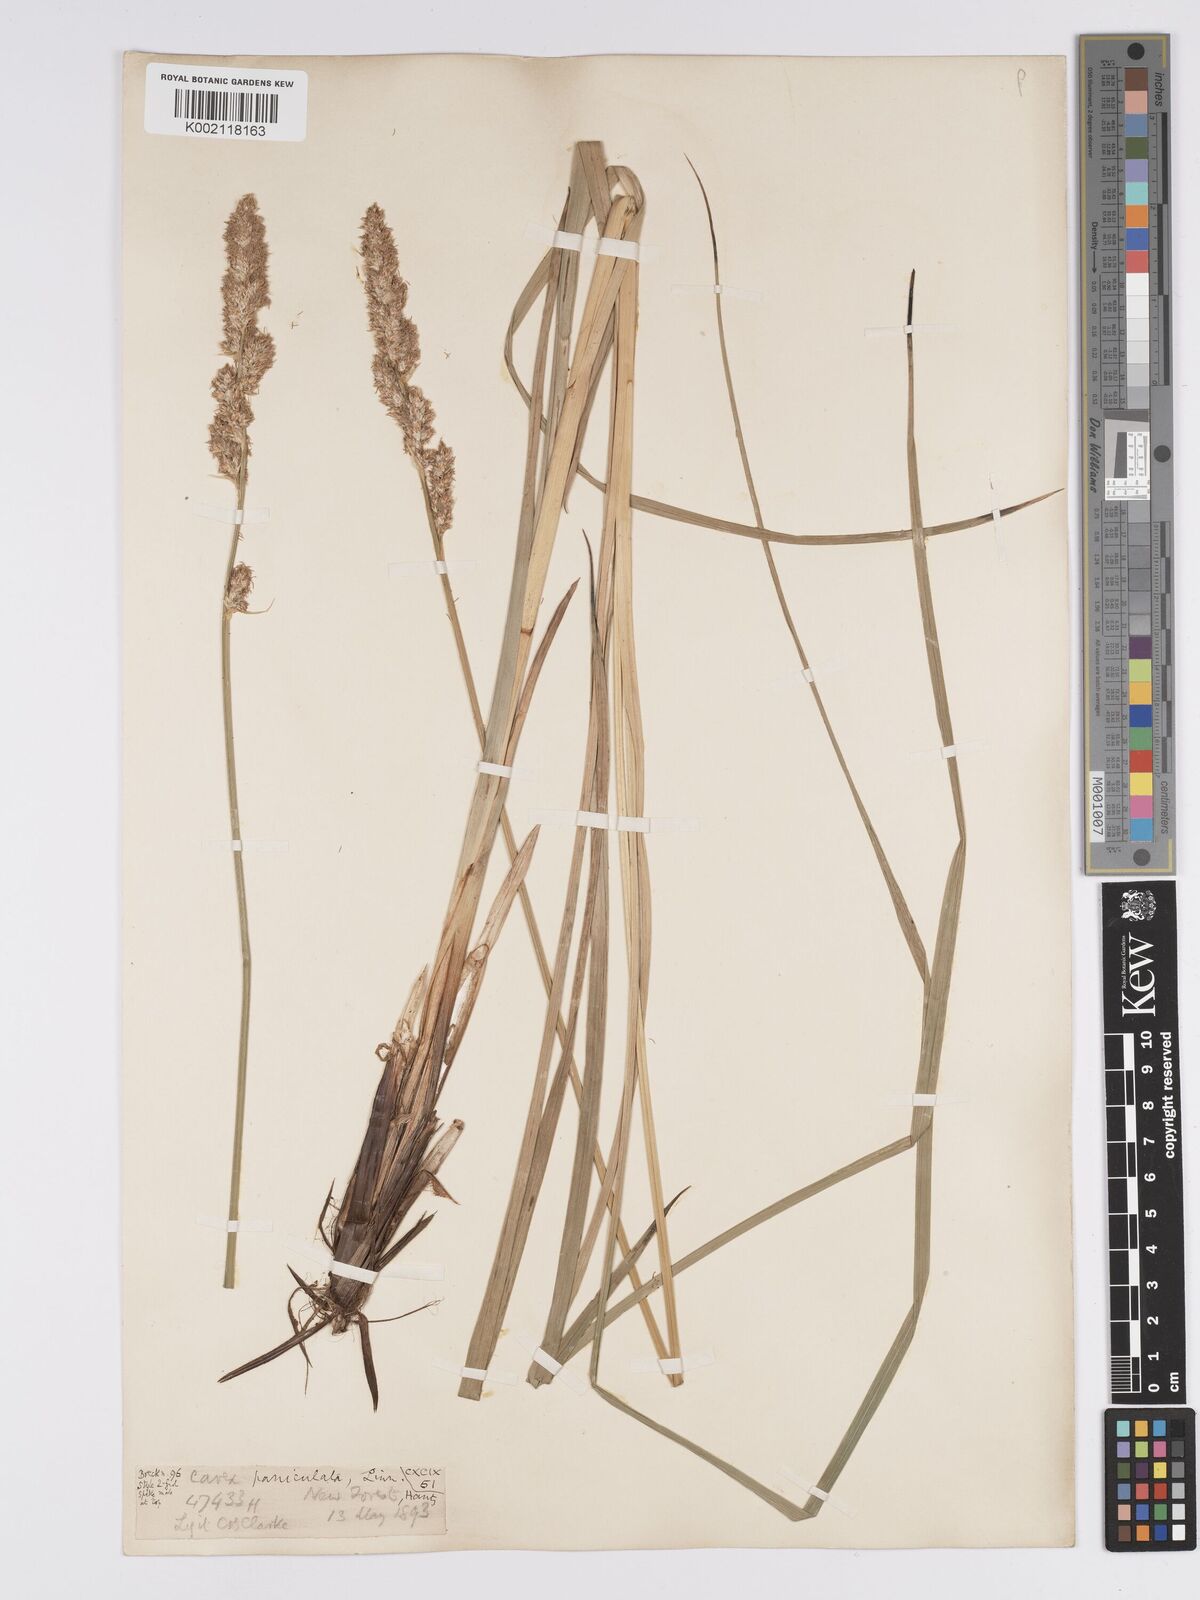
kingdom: Plantae
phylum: Tracheophyta
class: Liliopsida
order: Poales
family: Cyperaceae
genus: Carex
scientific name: Carex paniculata
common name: Greater tussock-sedge
